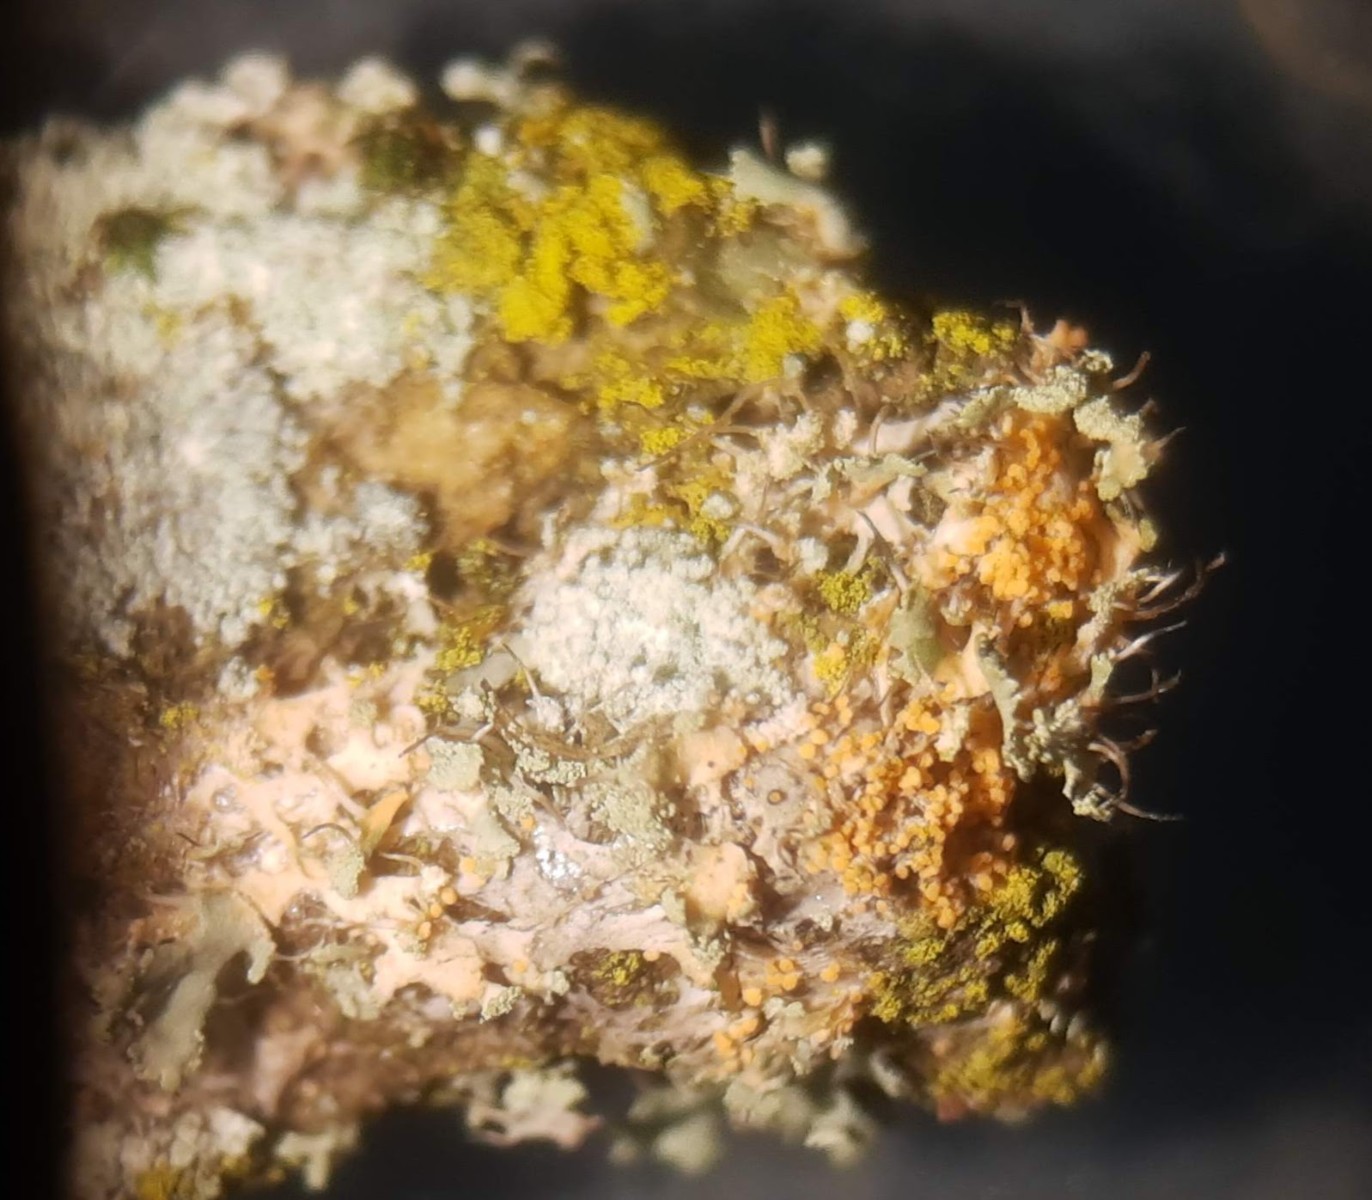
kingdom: Fungi
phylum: Basidiomycota
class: Agaricomycetes
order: Corticiales
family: Corticiaceae
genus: Erythricium
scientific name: Erythricium aurantiacum
